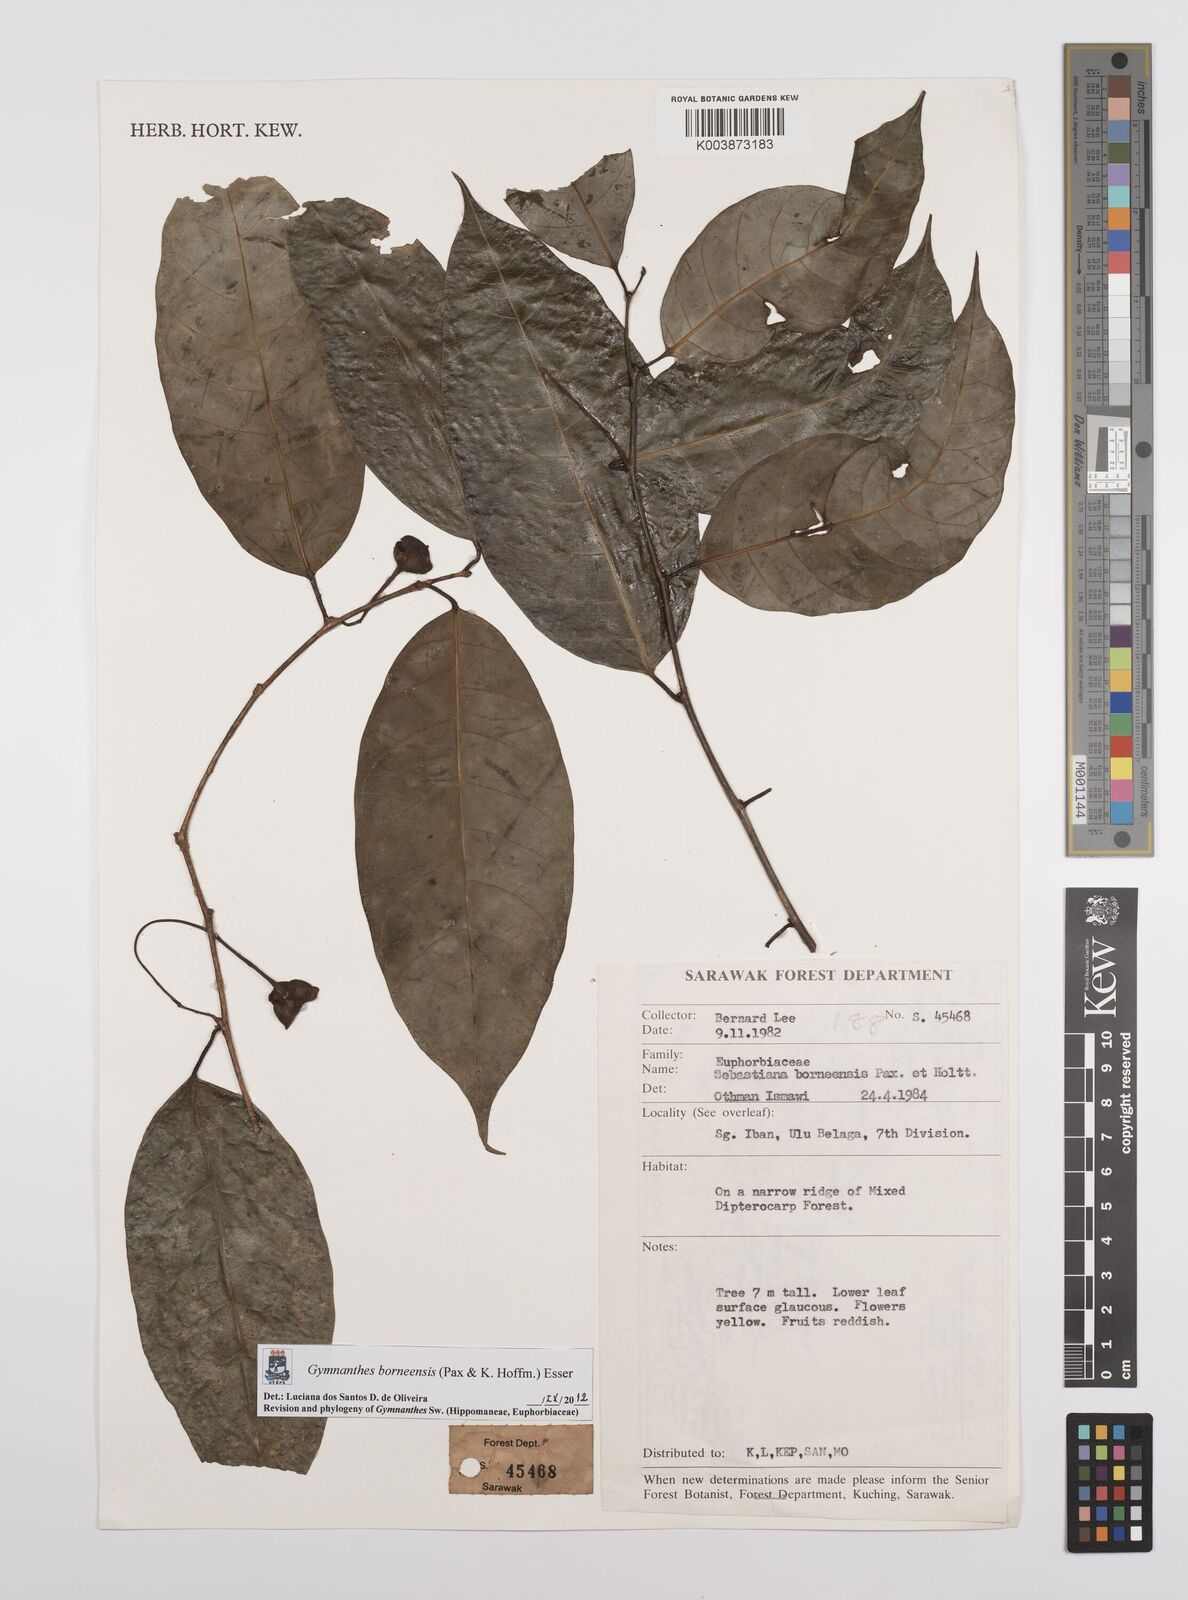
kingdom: Plantae
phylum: Tracheophyta
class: Magnoliopsida
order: Malpighiales
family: Euphorbiaceae
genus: Gymnanthes
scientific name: Gymnanthes borneensis
